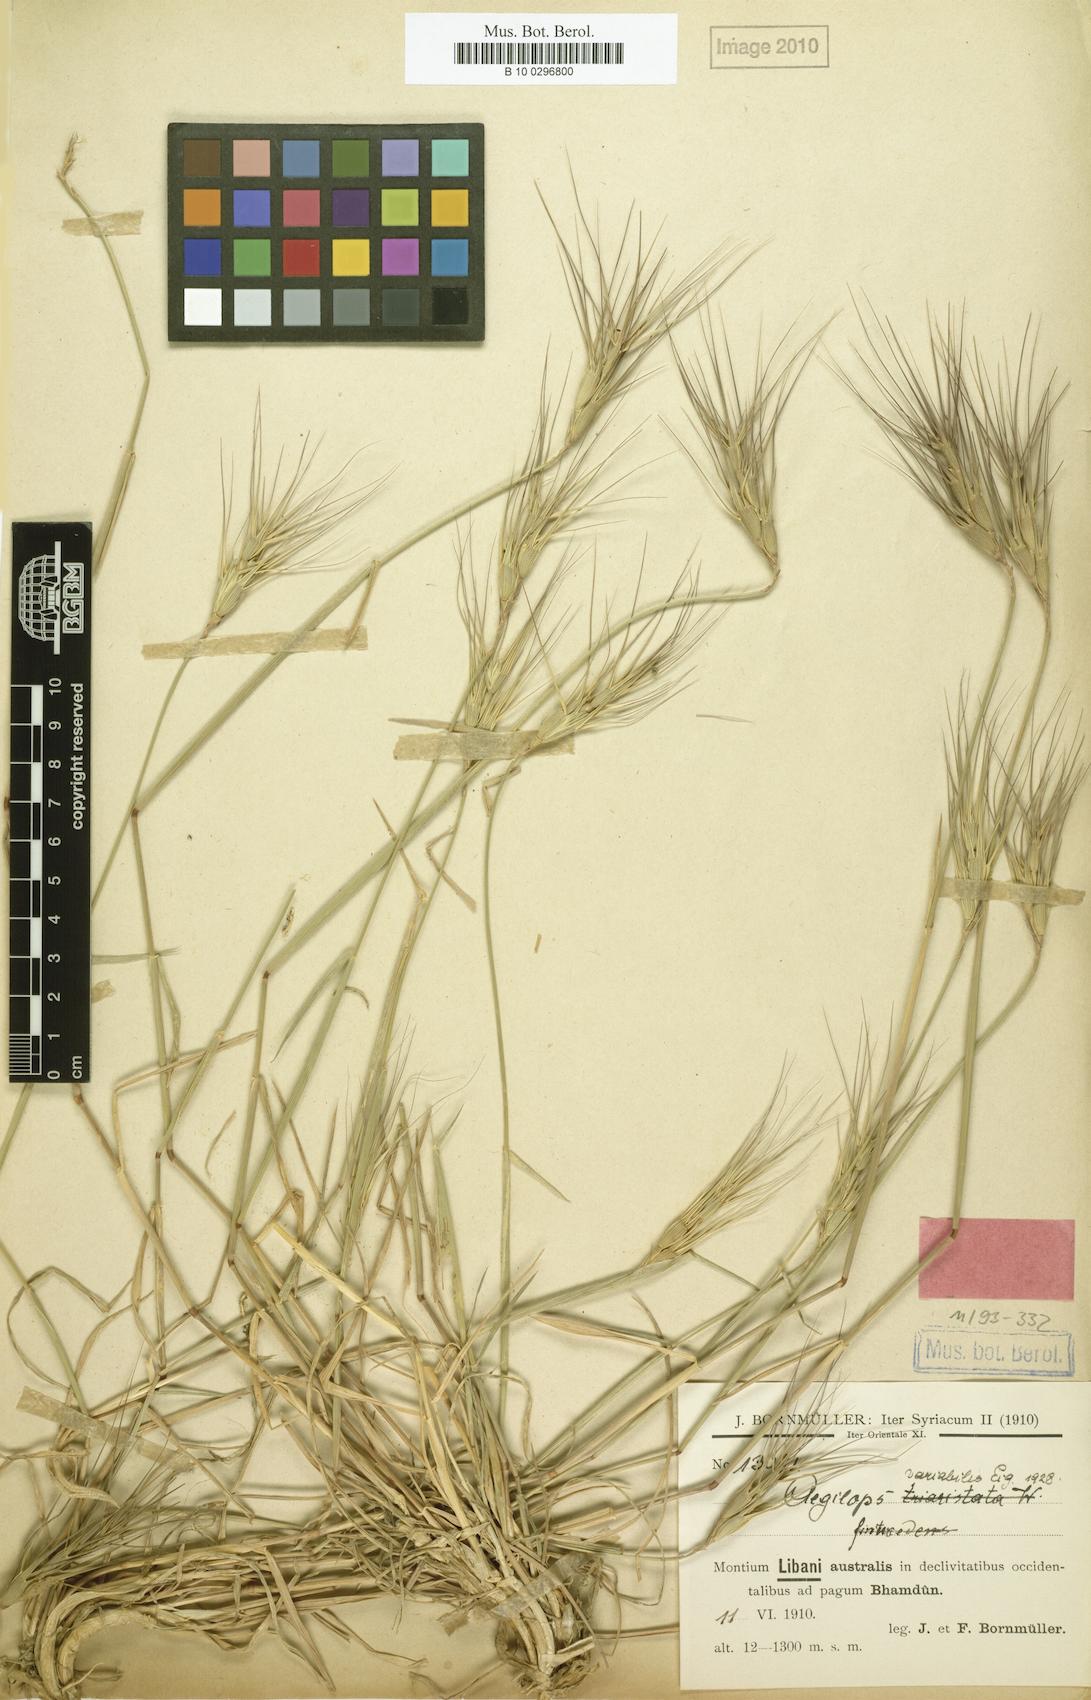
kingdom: Plantae
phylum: Tracheophyta
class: Liliopsida
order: Poales
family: Poaceae
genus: Aegilops
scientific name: Aegilops
